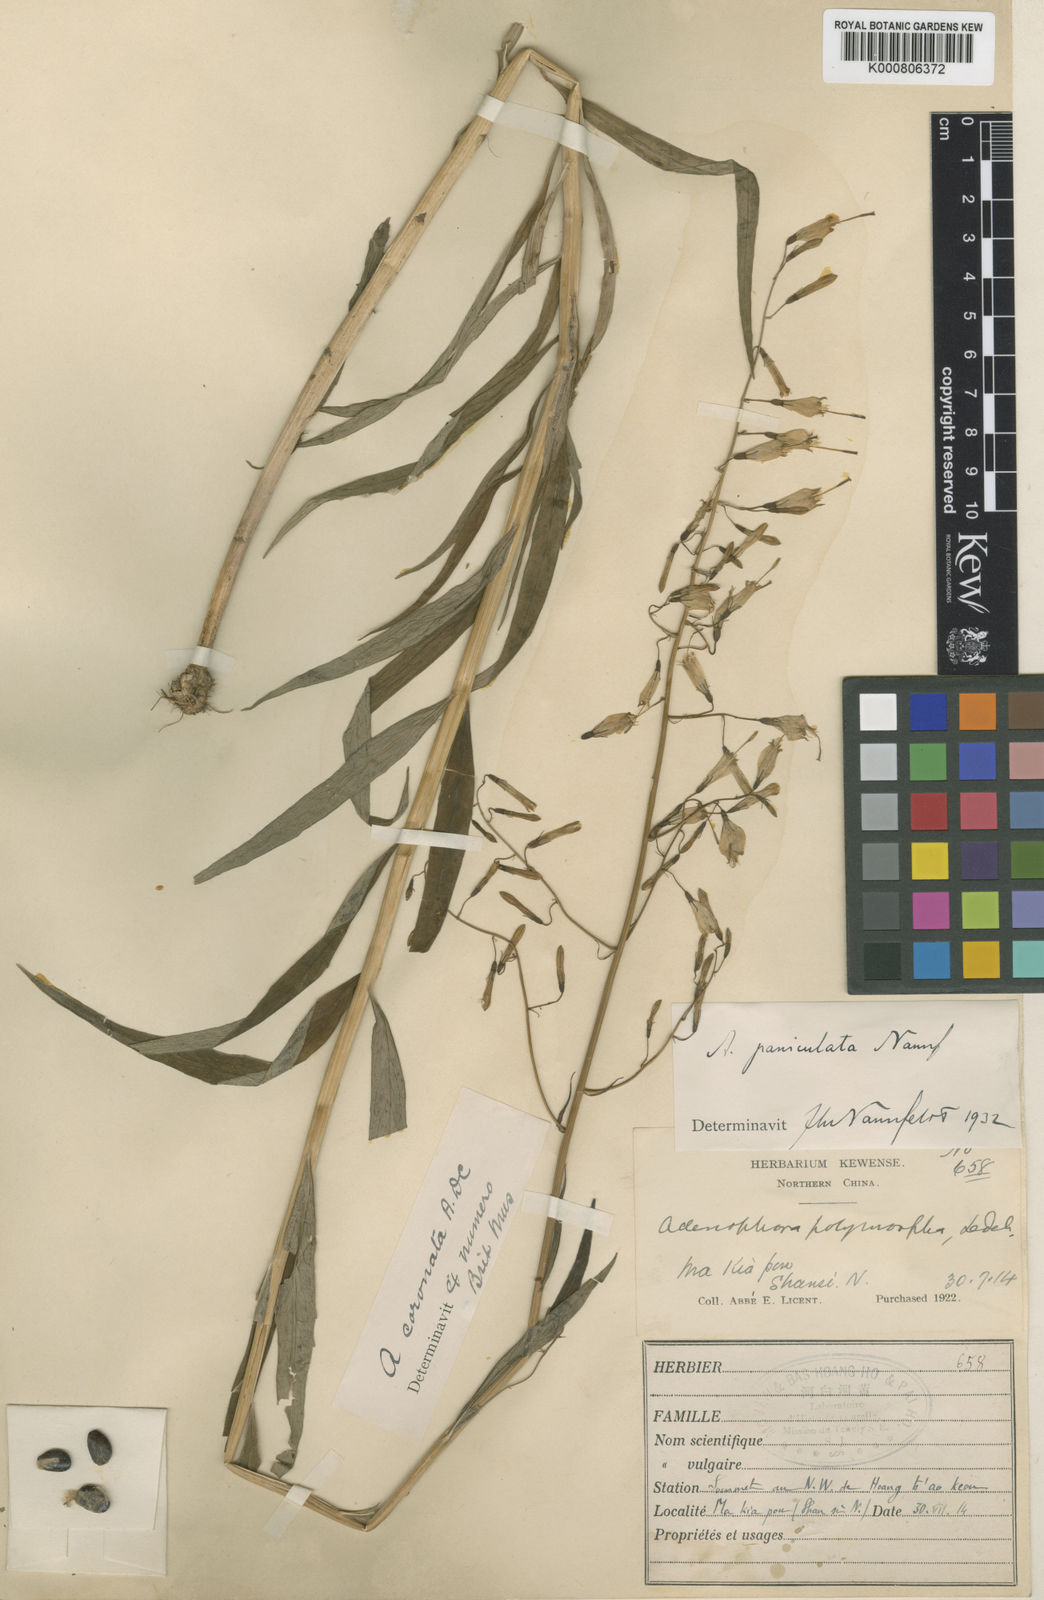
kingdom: Plantae
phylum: Tracheophyta
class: Magnoliopsida
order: Asterales
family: Campanulaceae
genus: Adenophora
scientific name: Adenophora capillaris
